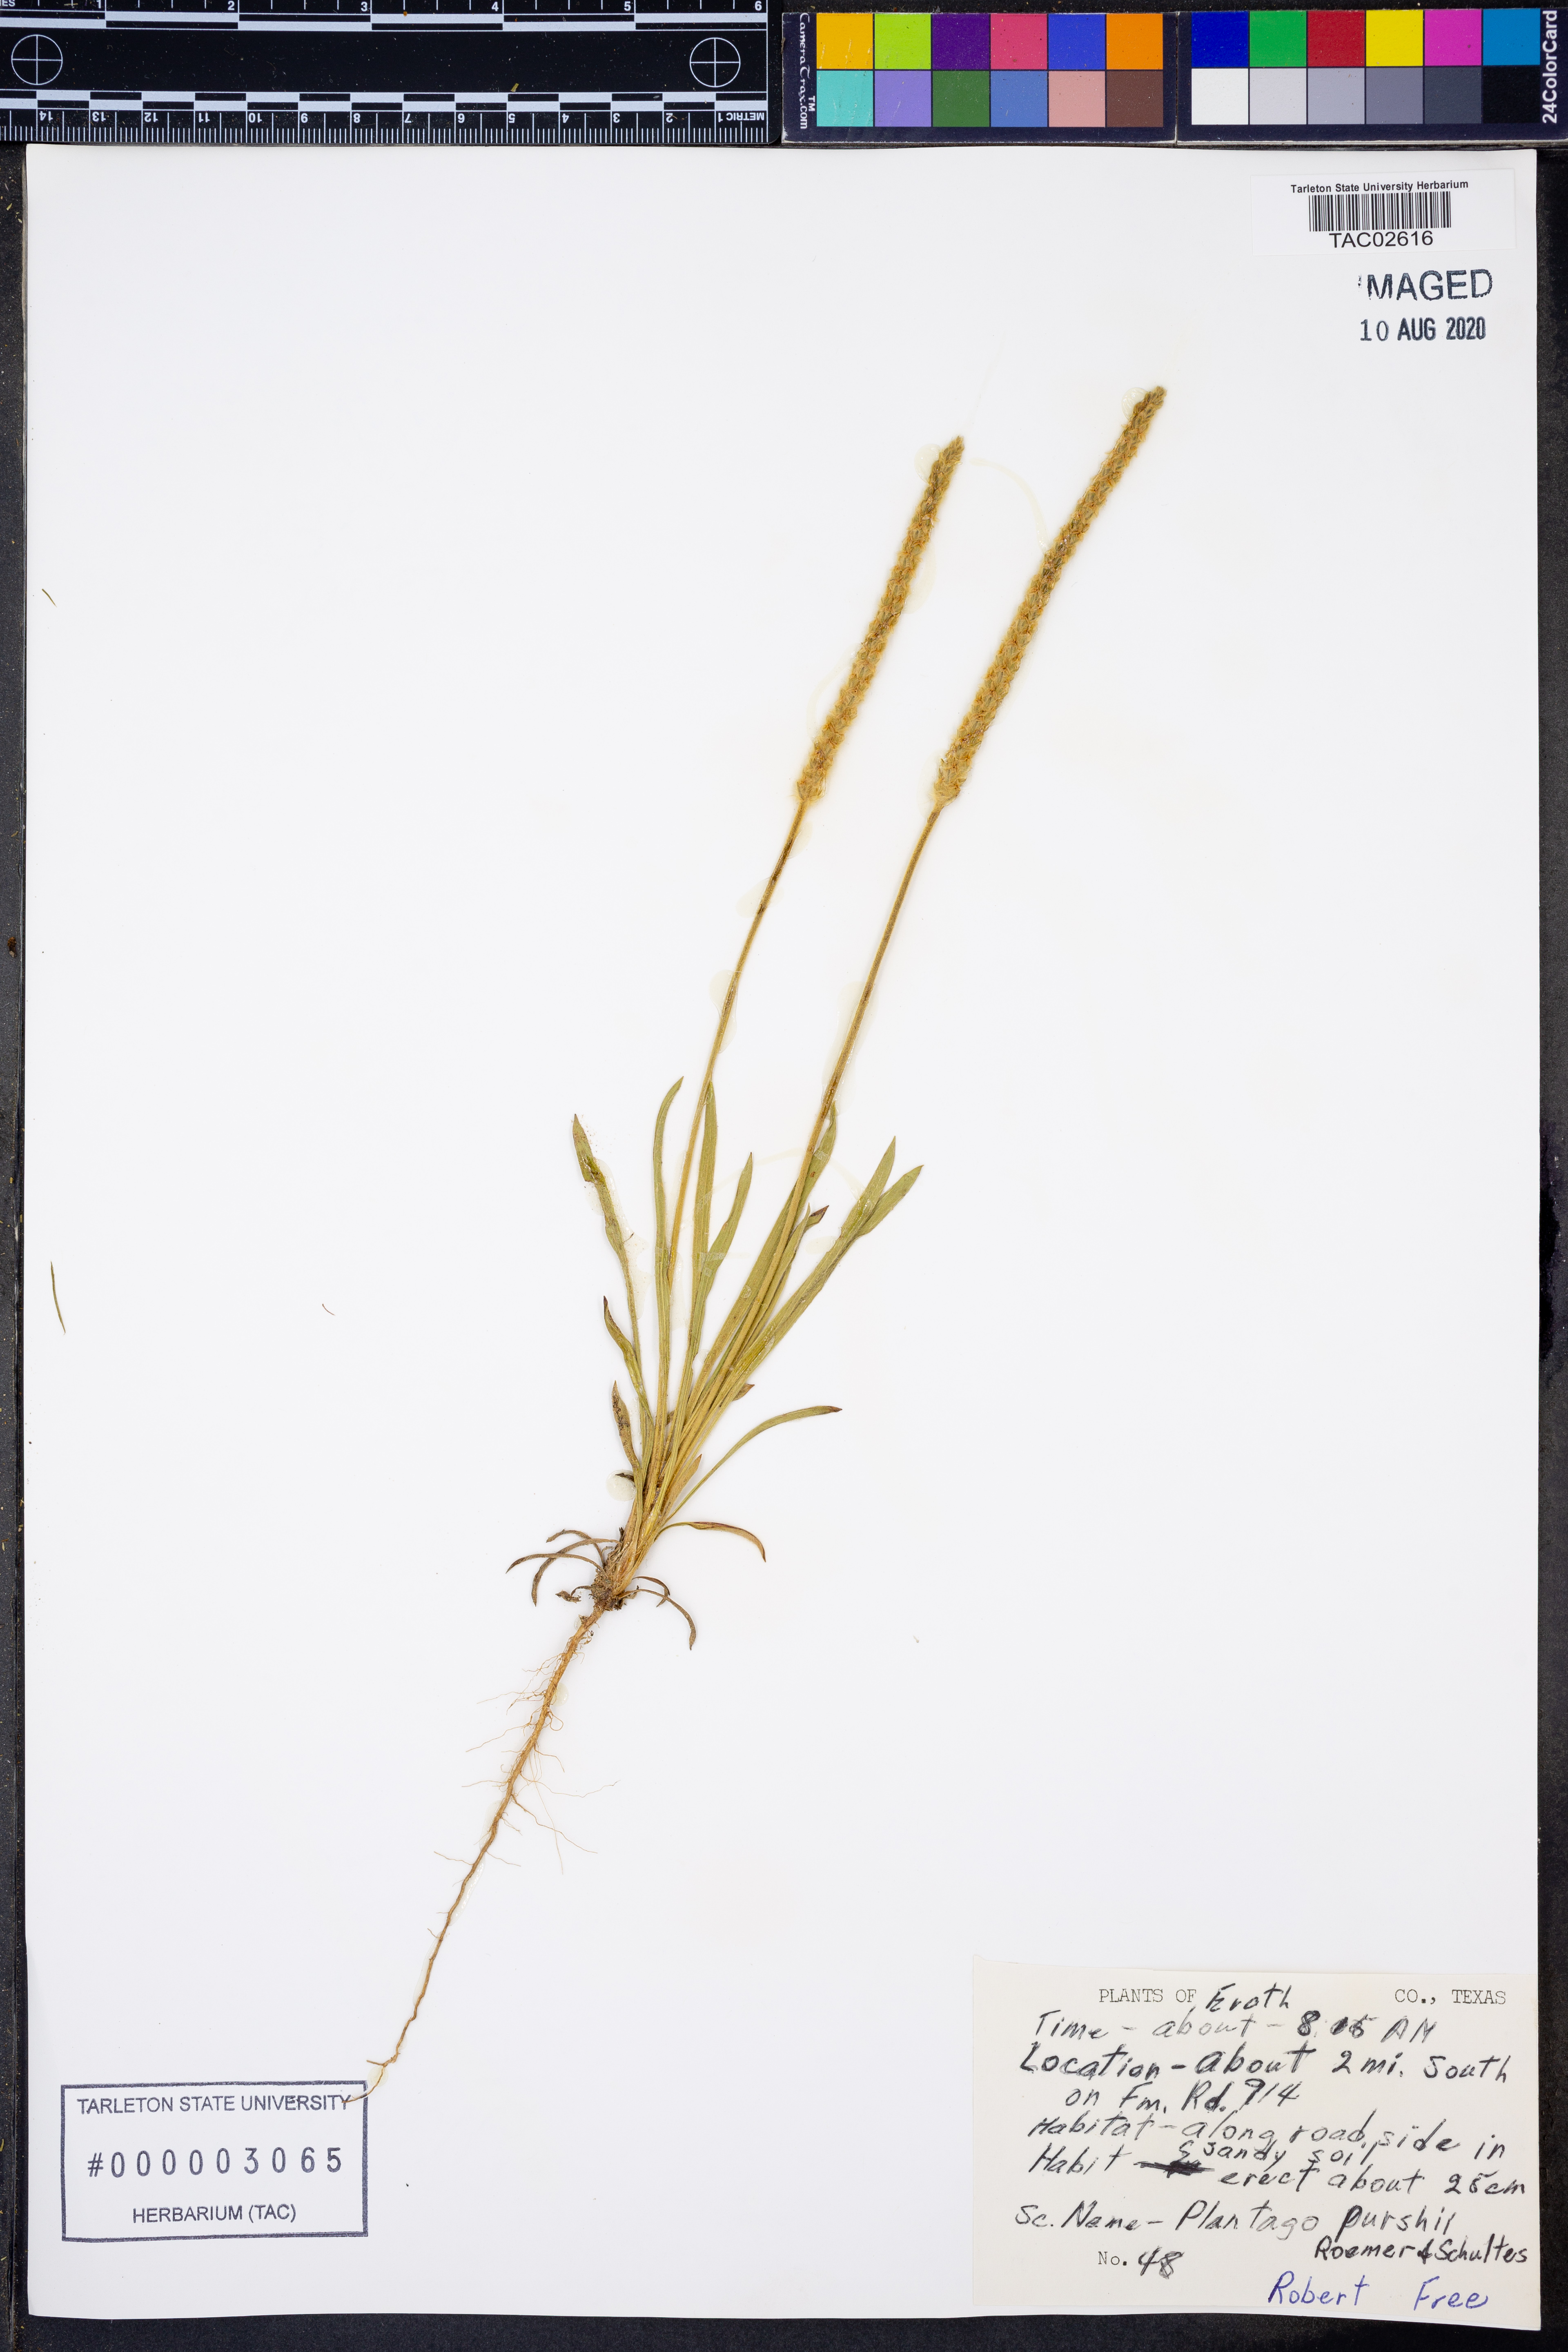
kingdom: Plantae
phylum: Tracheophyta
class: Magnoliopsida
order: Lamiales
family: Plantaginaceae
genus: Plantago
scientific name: Plantago patagonica
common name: Patagonia indian-wheat
